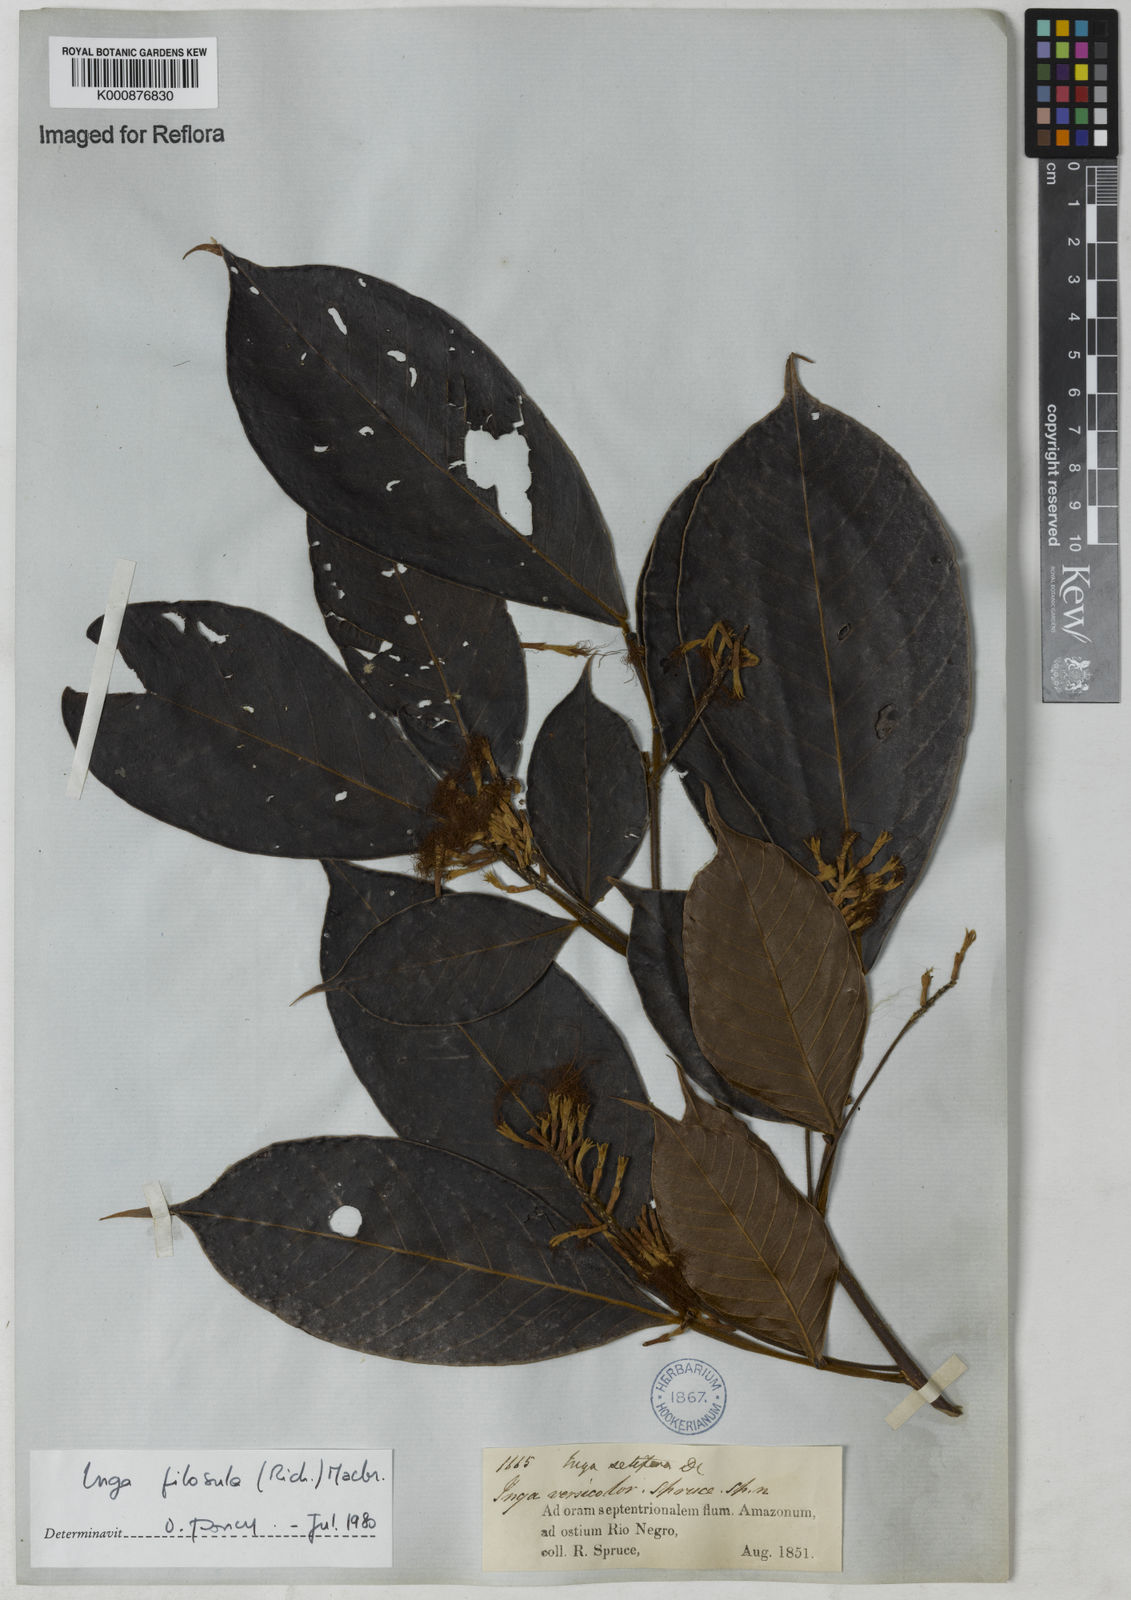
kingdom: Plantae
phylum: Tracheophyta
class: Magnoliopsida
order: Fabales
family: Fabaceae
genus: Inga
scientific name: Inga pilosula
